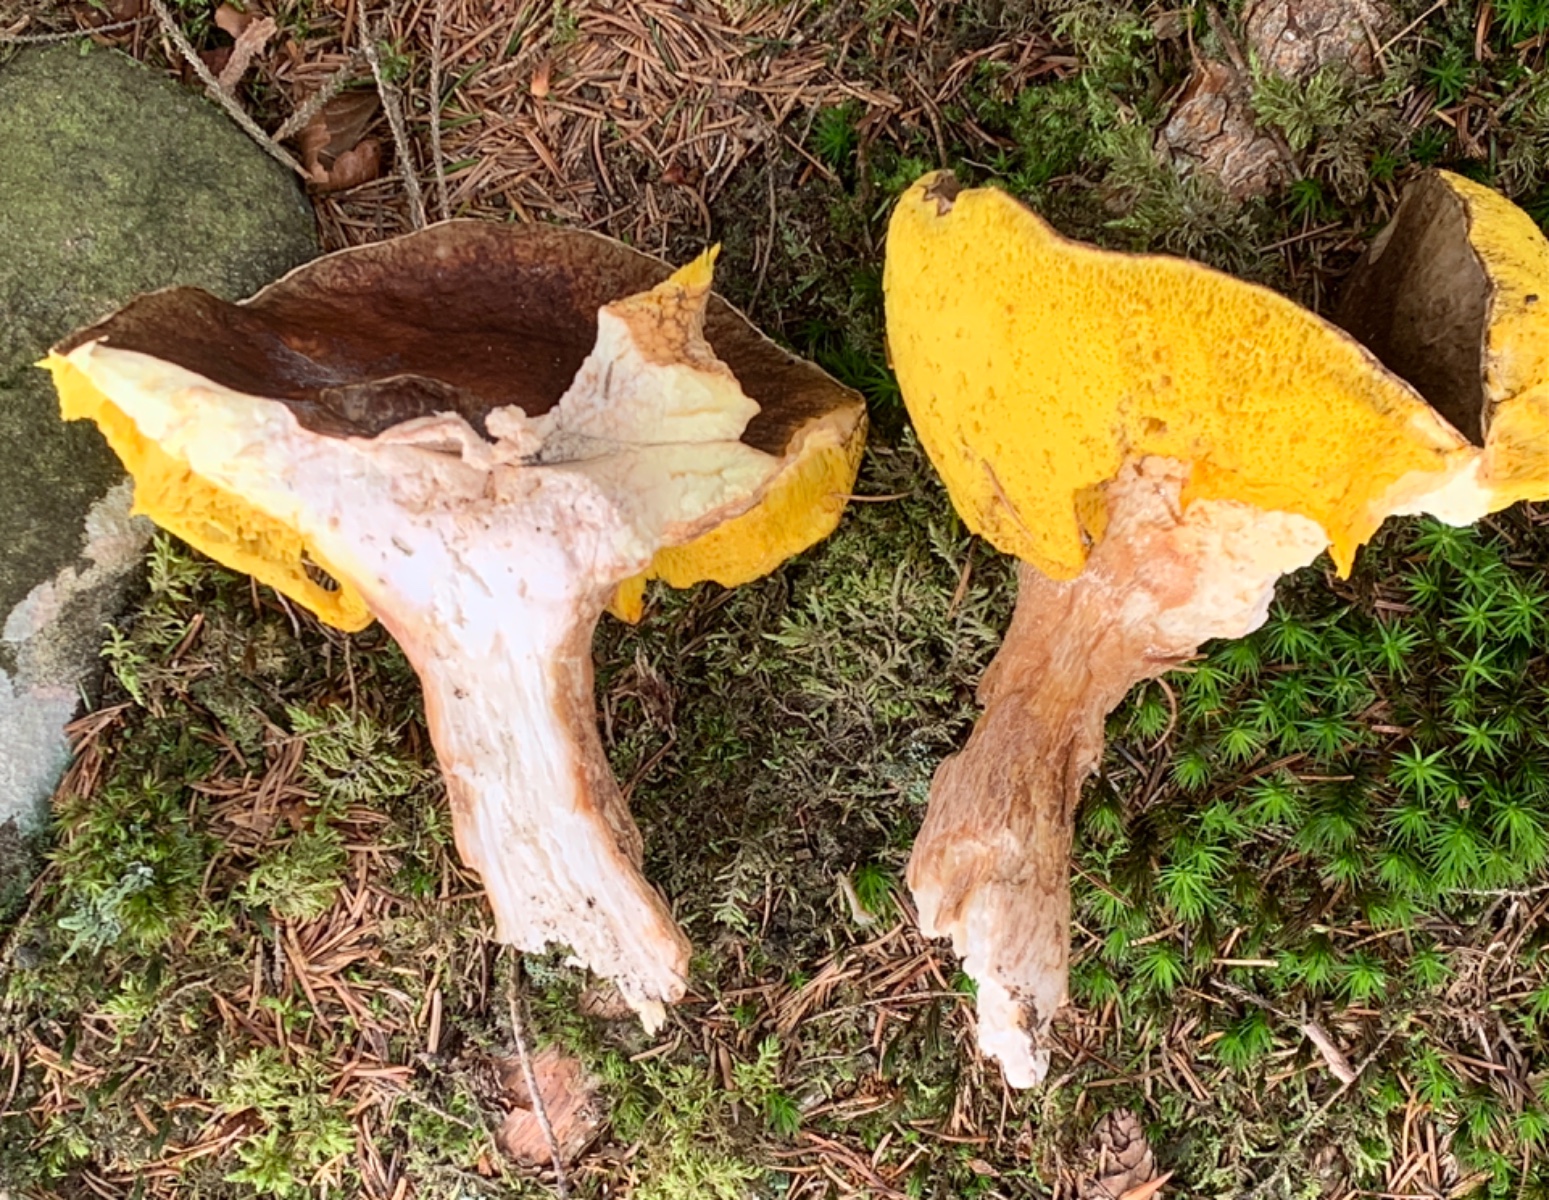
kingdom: Fungi
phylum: Basidiomycota
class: Agaricomycetes
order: Boletales
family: Boletaceae
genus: Boletus
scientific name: Boletus pinophilus
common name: rødbrun rørhat
